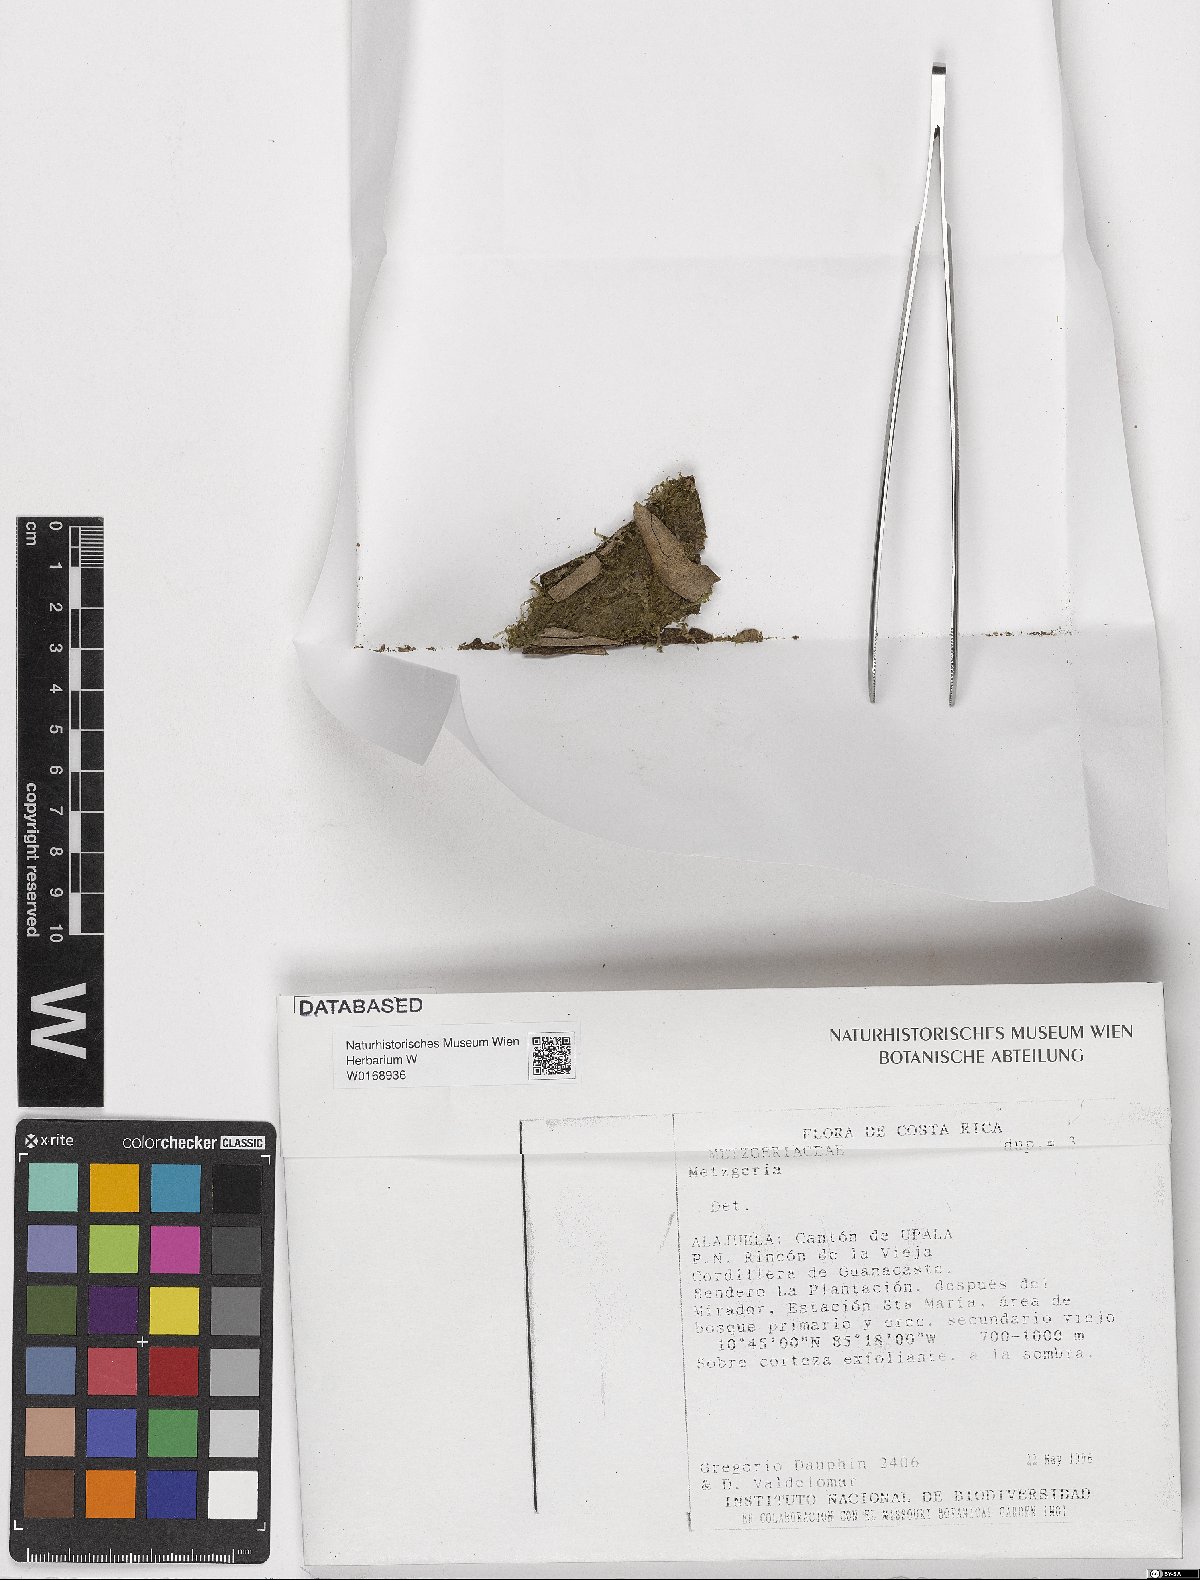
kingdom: Plantae
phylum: Marchantiophyta
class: Jungermanniopsida
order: Metzgeriales
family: Metzgeriaceae
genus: Metzgeria
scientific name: Metzgeria
